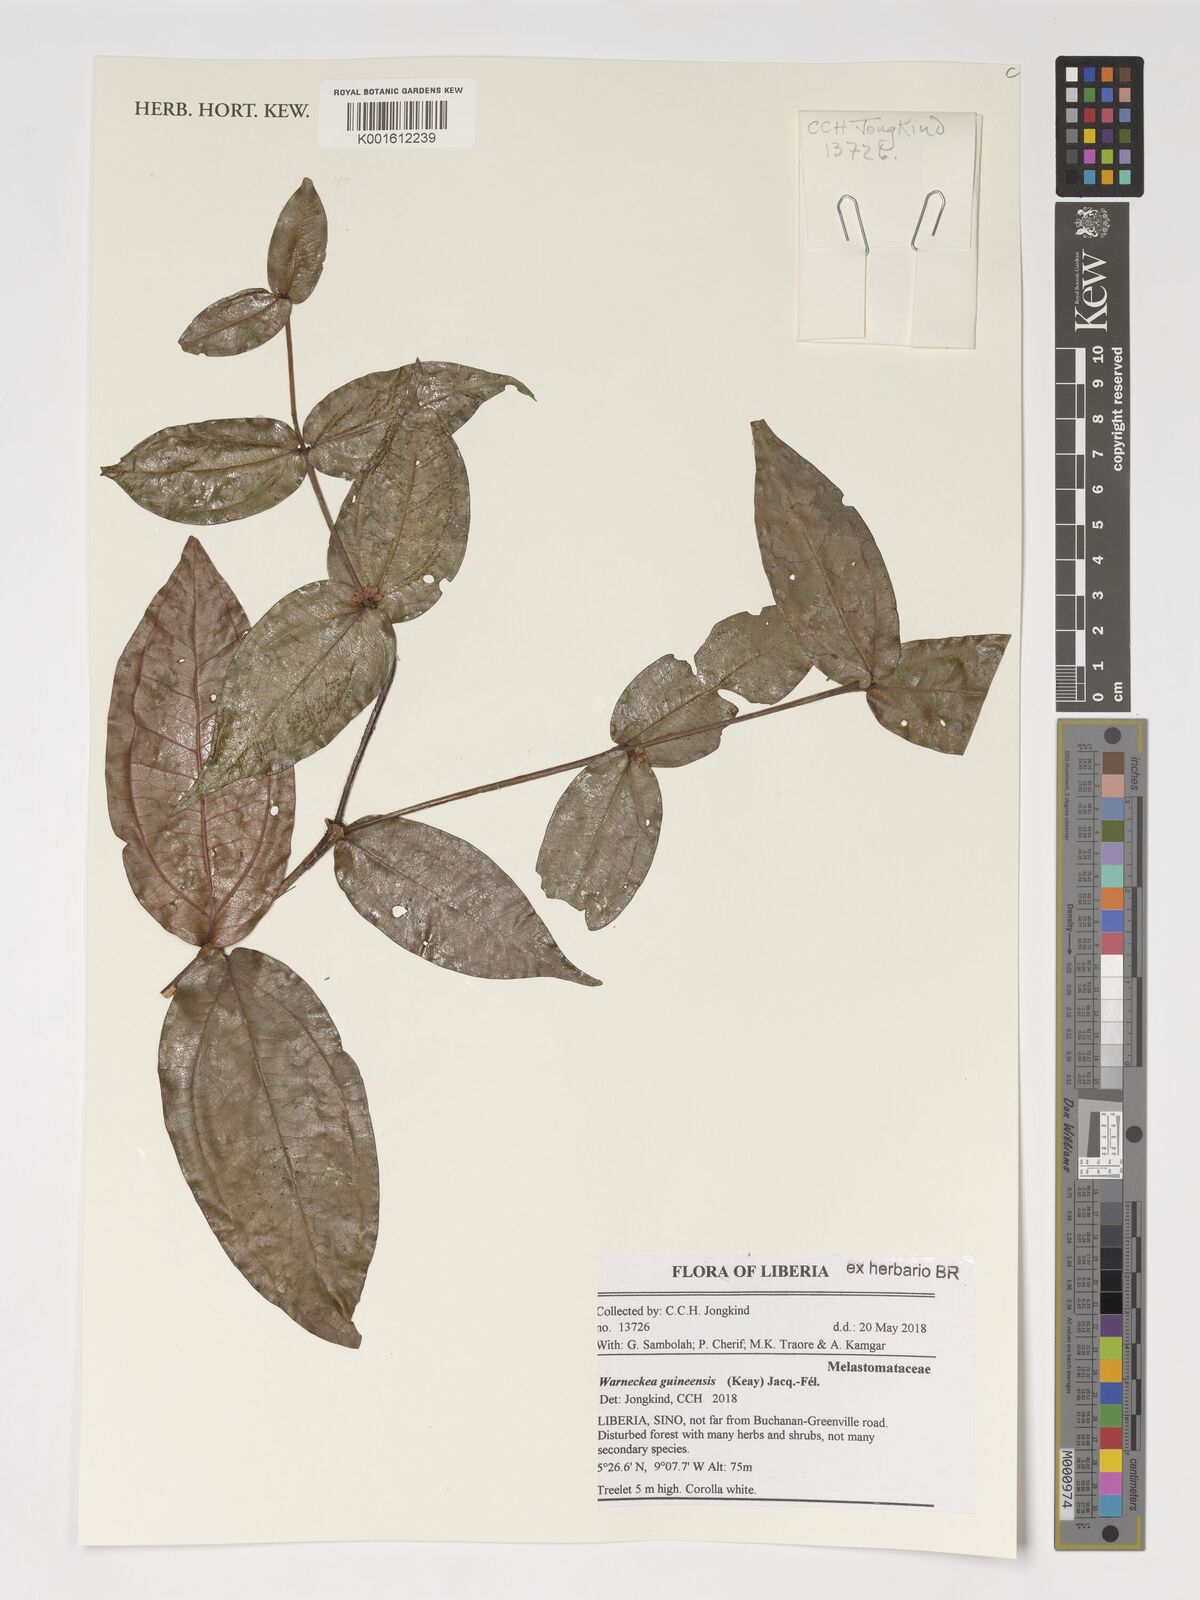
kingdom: Plantae
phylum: Tracheophyta
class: Magnoliopsida
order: Myrtales
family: Melastomataceae
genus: Warneckea
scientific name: Warneckea guineensis
